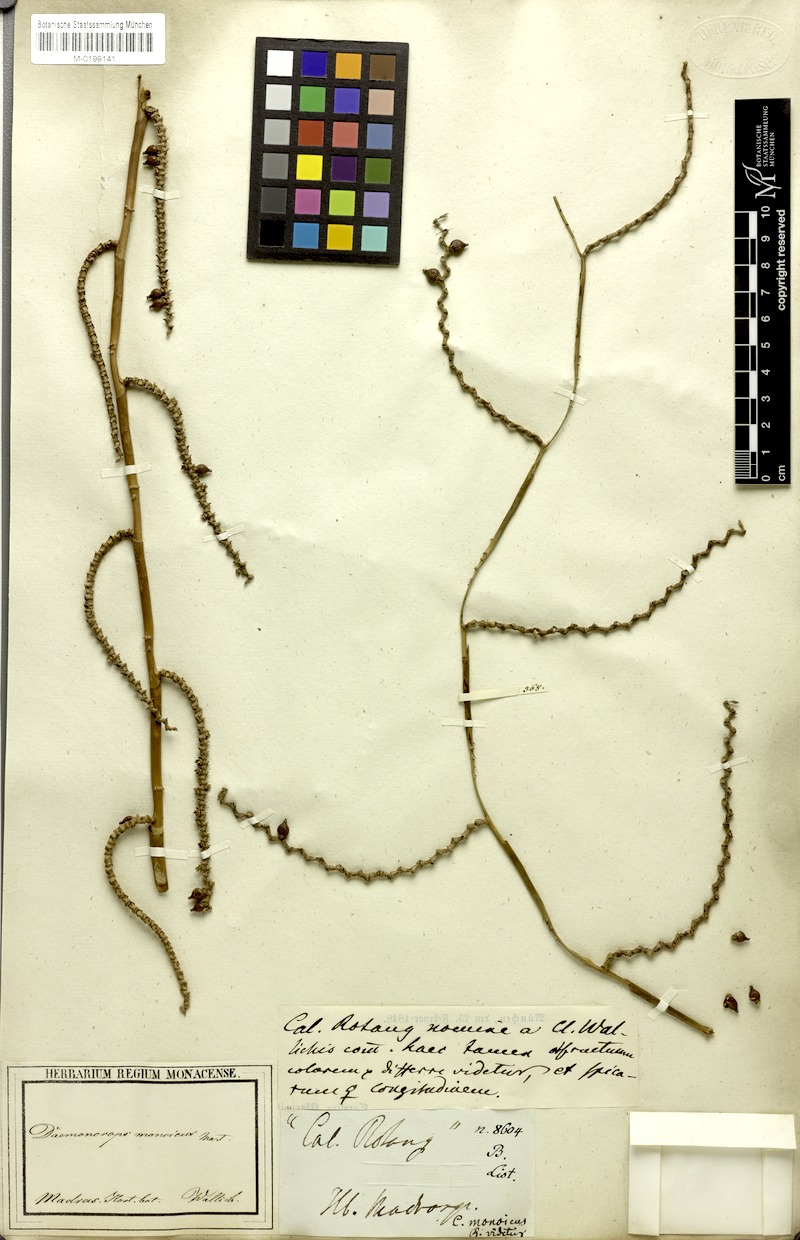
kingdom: Plantae
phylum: Tracheophyta
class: Liliopsida
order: Arecales
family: Arecaceae
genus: Calamus
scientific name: Calamus pseudotenuis
